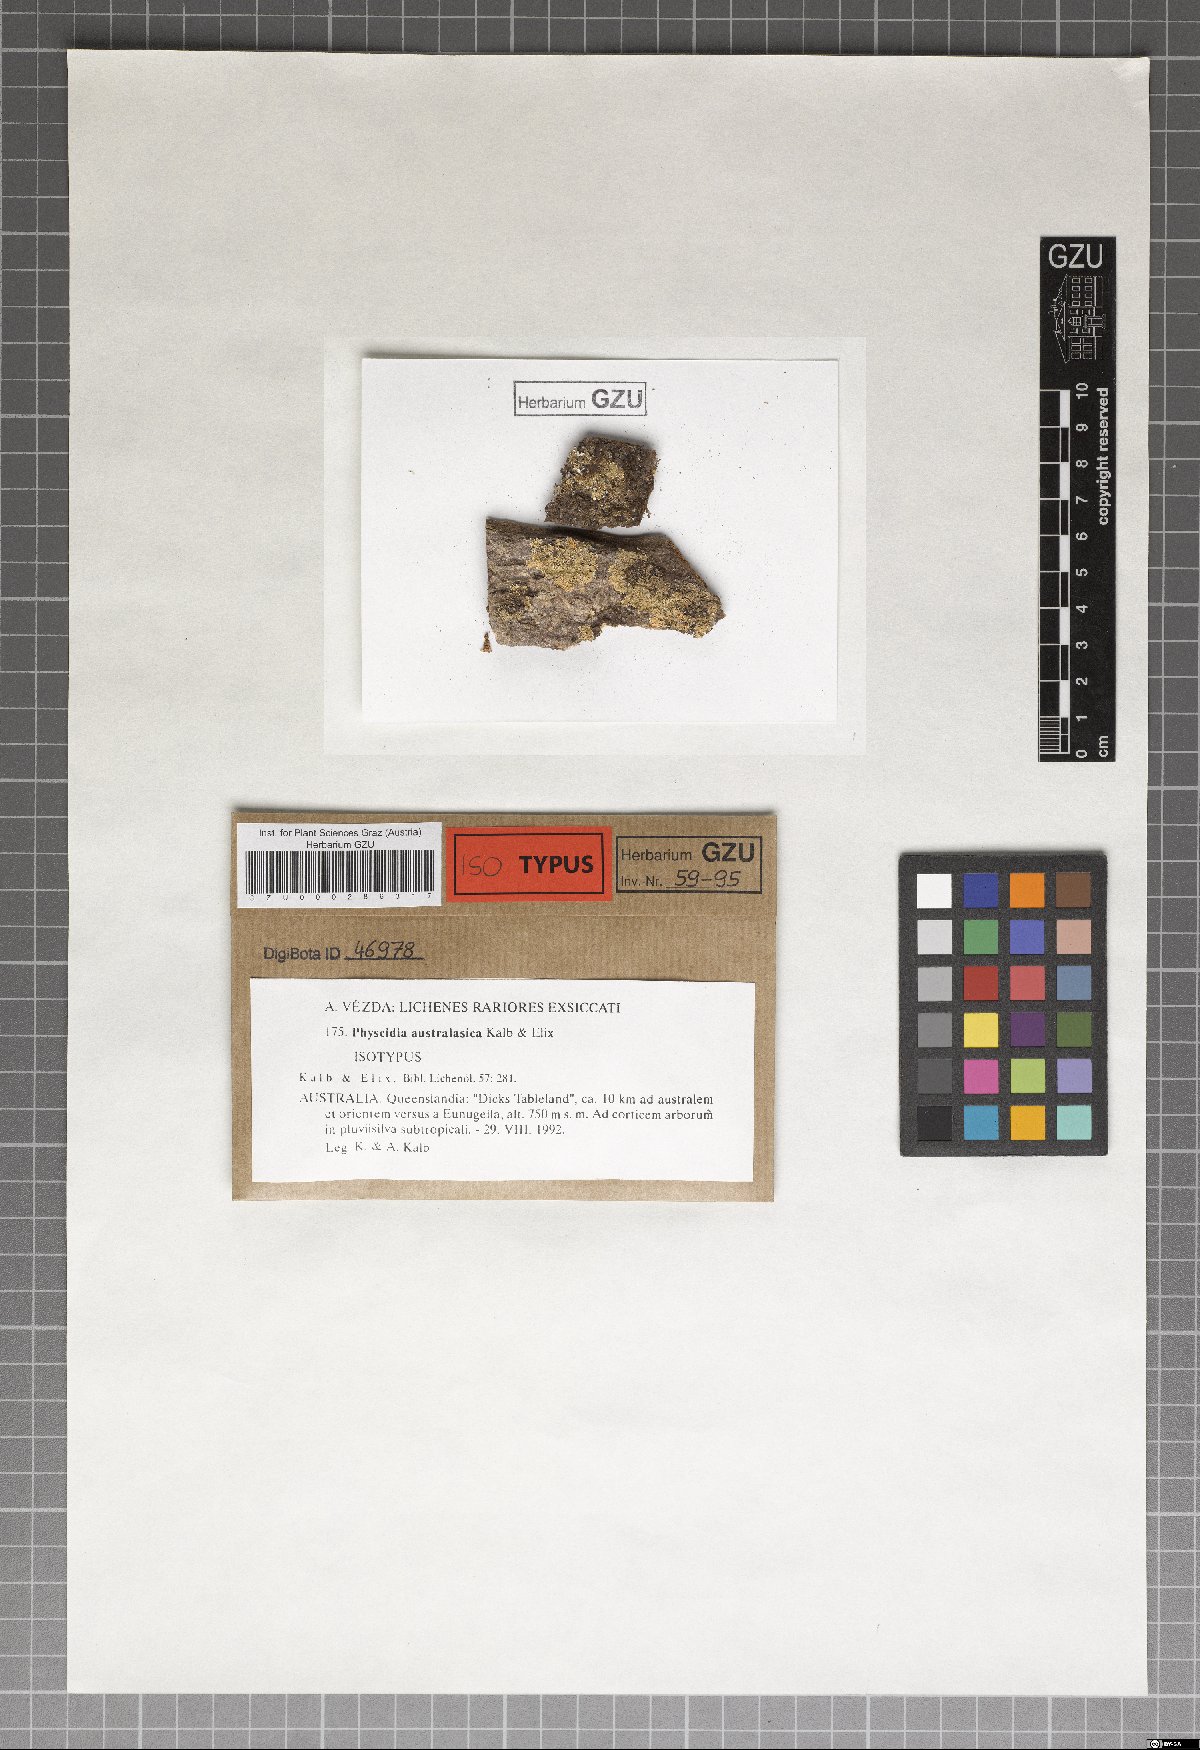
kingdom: Fungi
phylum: Ascomycota
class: Lecanoromycetes
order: Lecanorales
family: Ramalinaceae
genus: Physcidia
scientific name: Physcidia australasica
